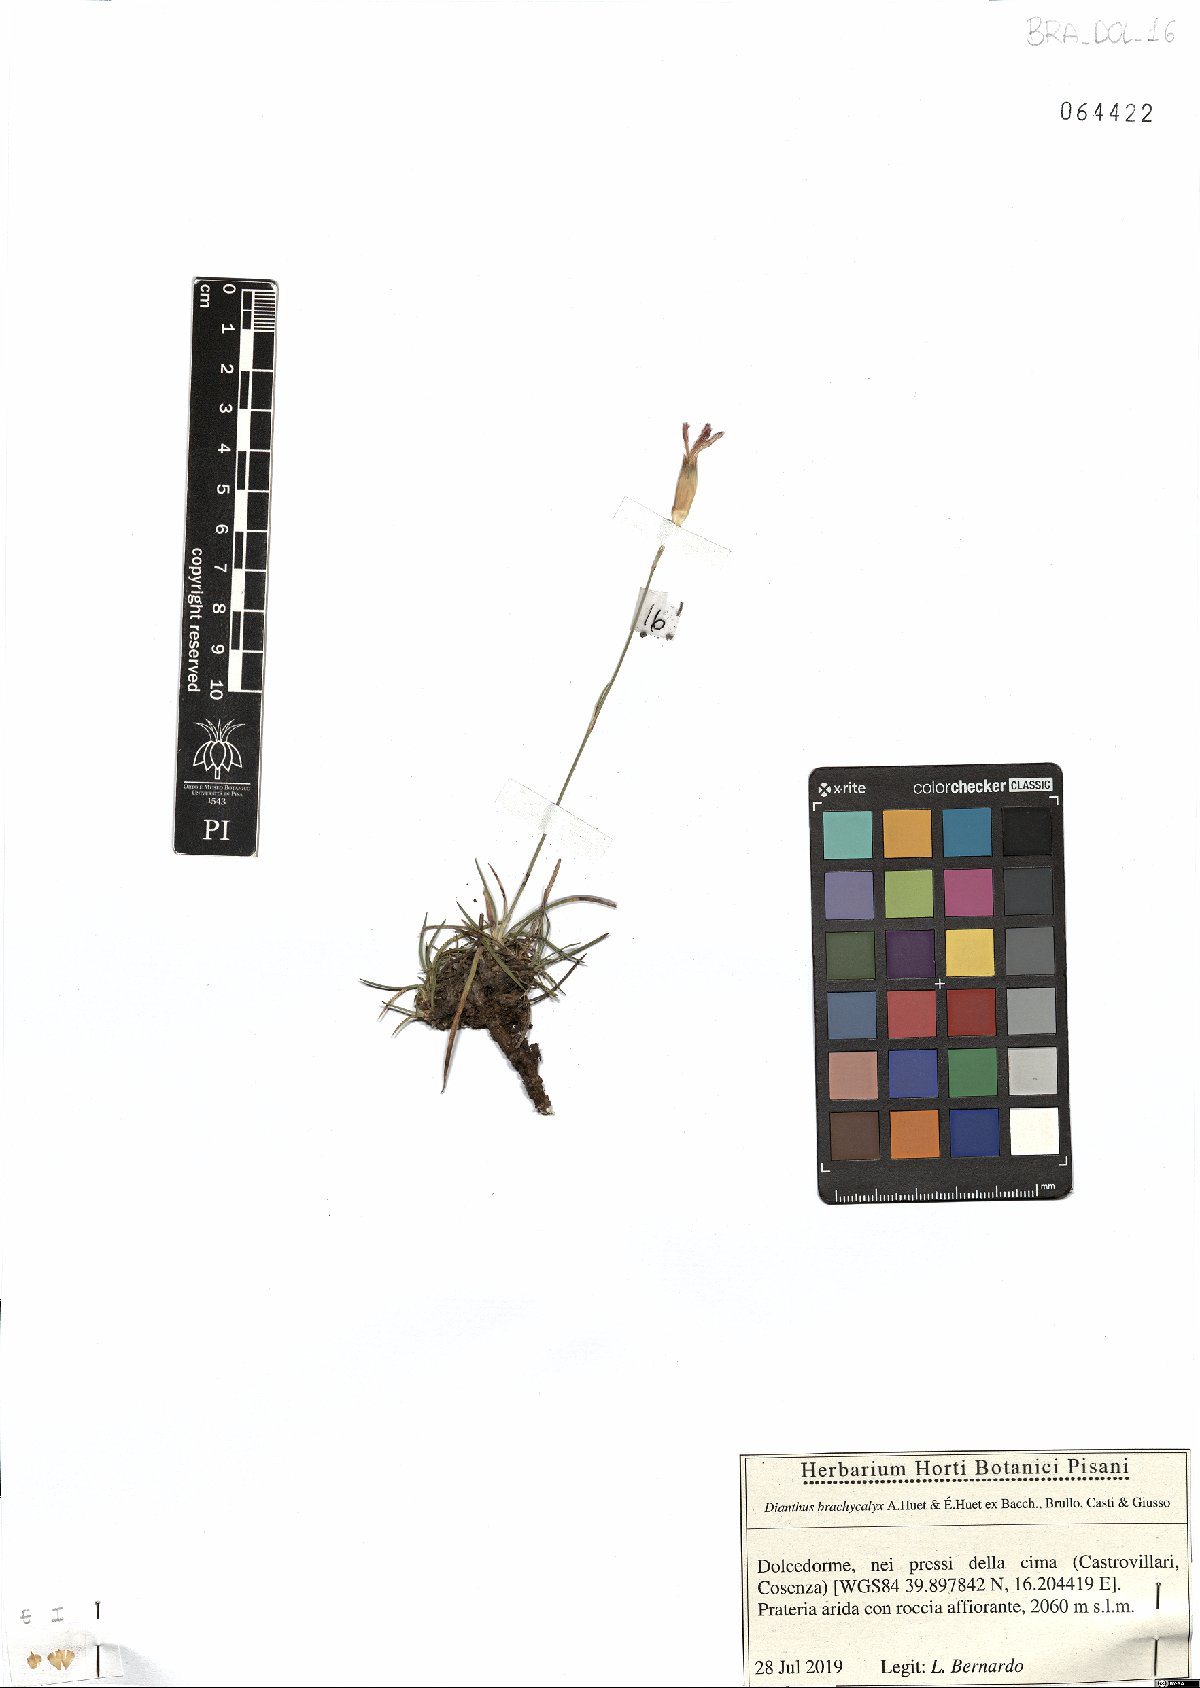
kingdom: Plantae
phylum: Tracheophyta
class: Magnoliopsida
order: Caryophyllales
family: Caryophyllaceae
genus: Dianthus
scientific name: Dianthus brachycalyx
